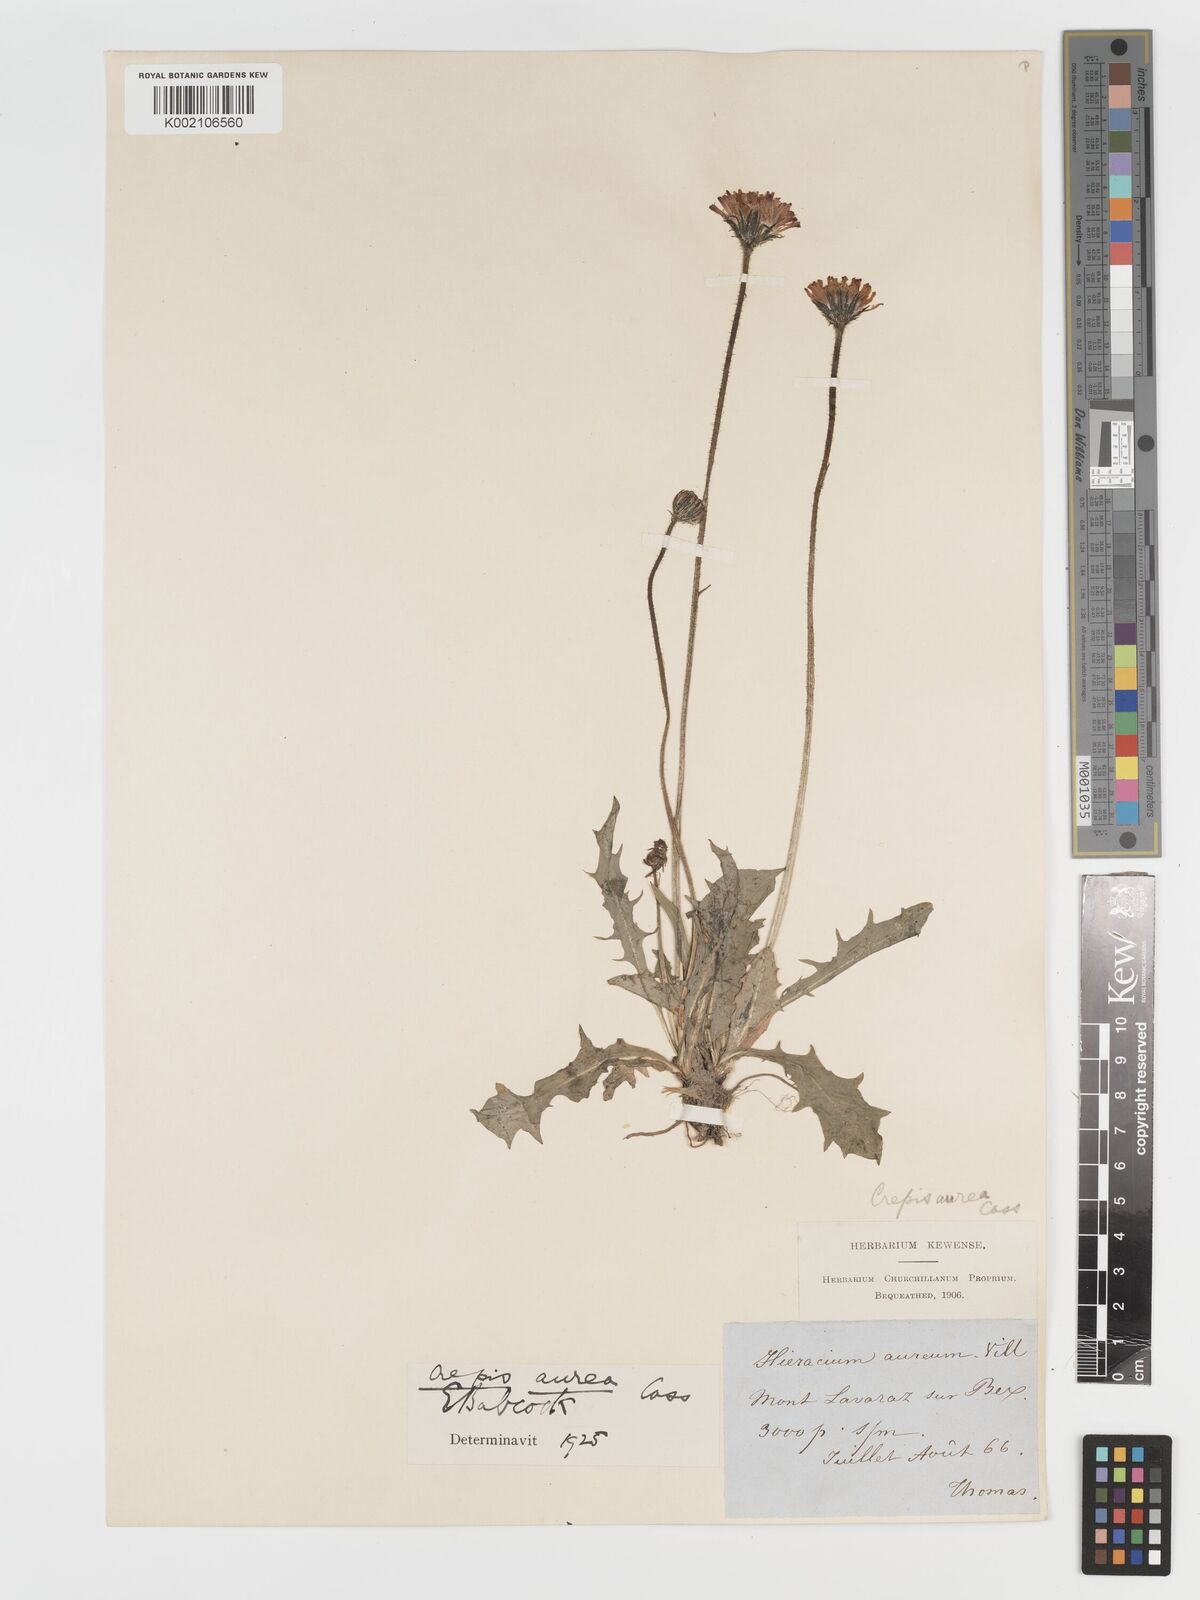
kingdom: Plantae
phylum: Tracheophyta
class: Magnoliopsida
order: Asterales
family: Asteraceae
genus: Crepis
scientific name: Crepis aurea
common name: Golden hawk's-beard
